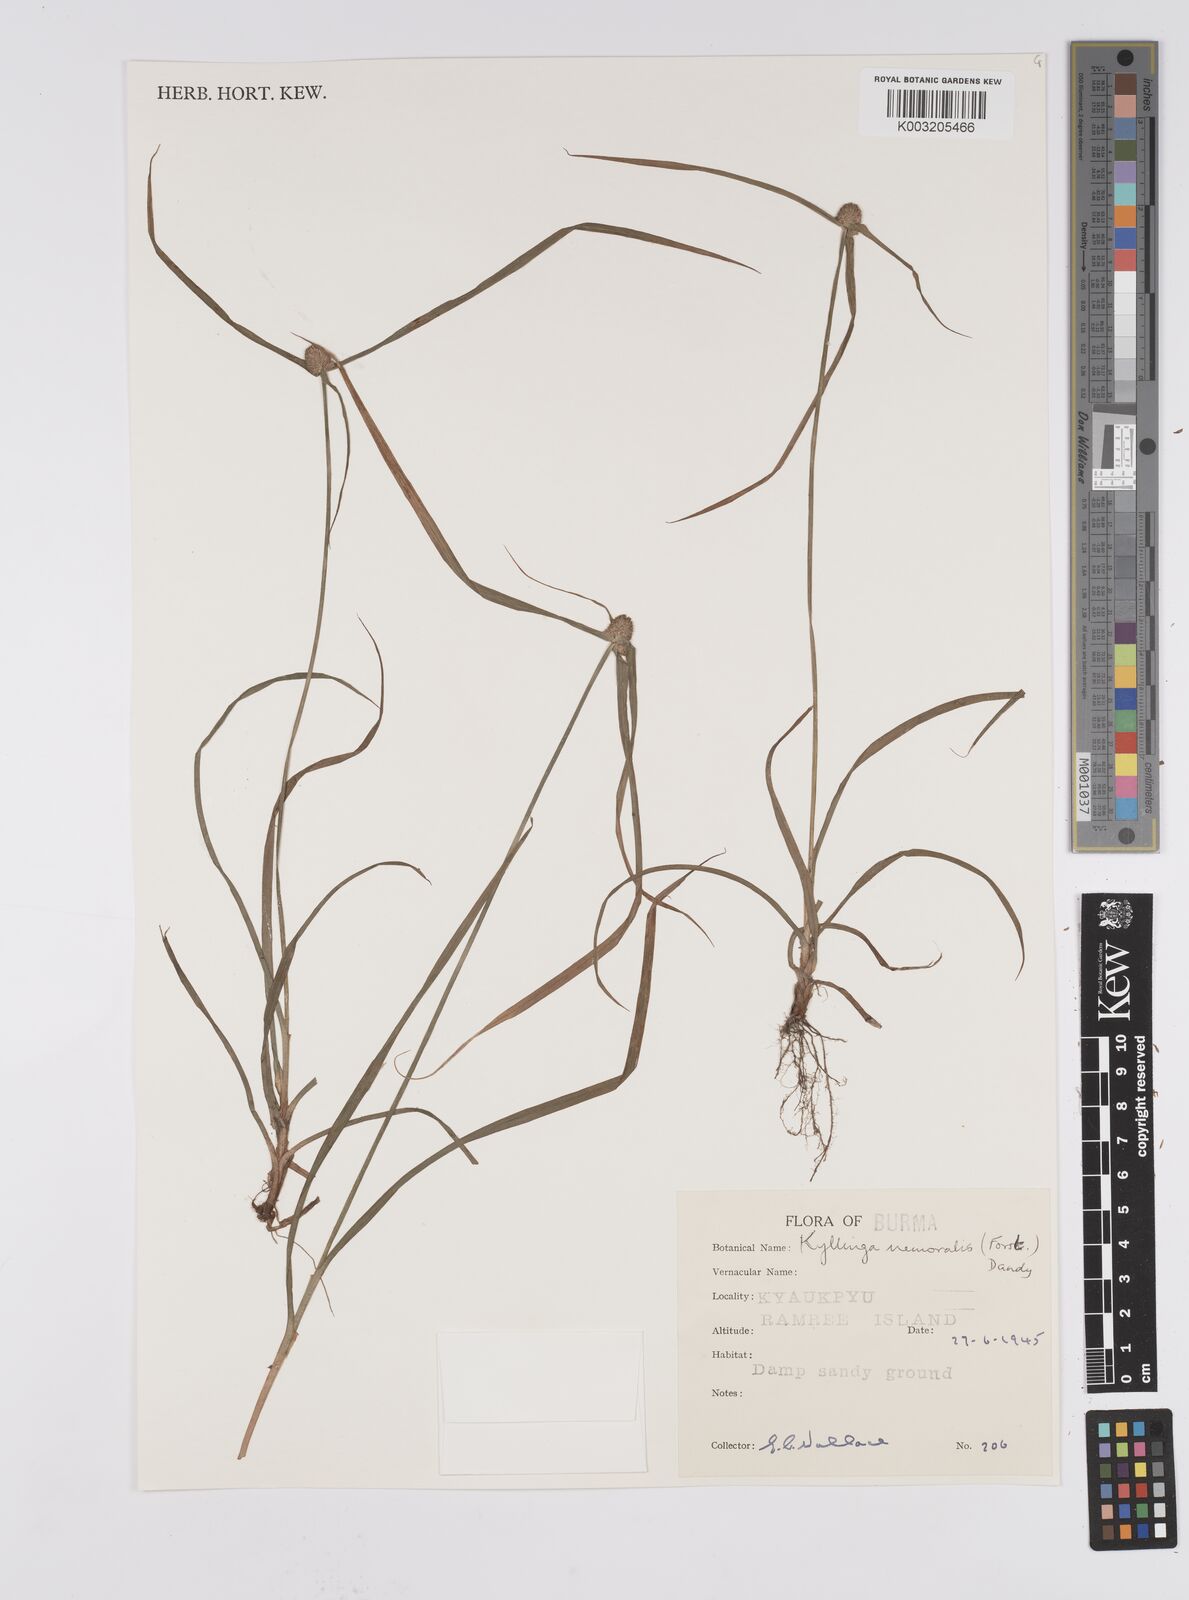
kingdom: Plantae
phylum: Tracheophyta
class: Liliopsida
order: Poales
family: Cyperaceae
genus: Cyperus
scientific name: Cyperus nemoralis
